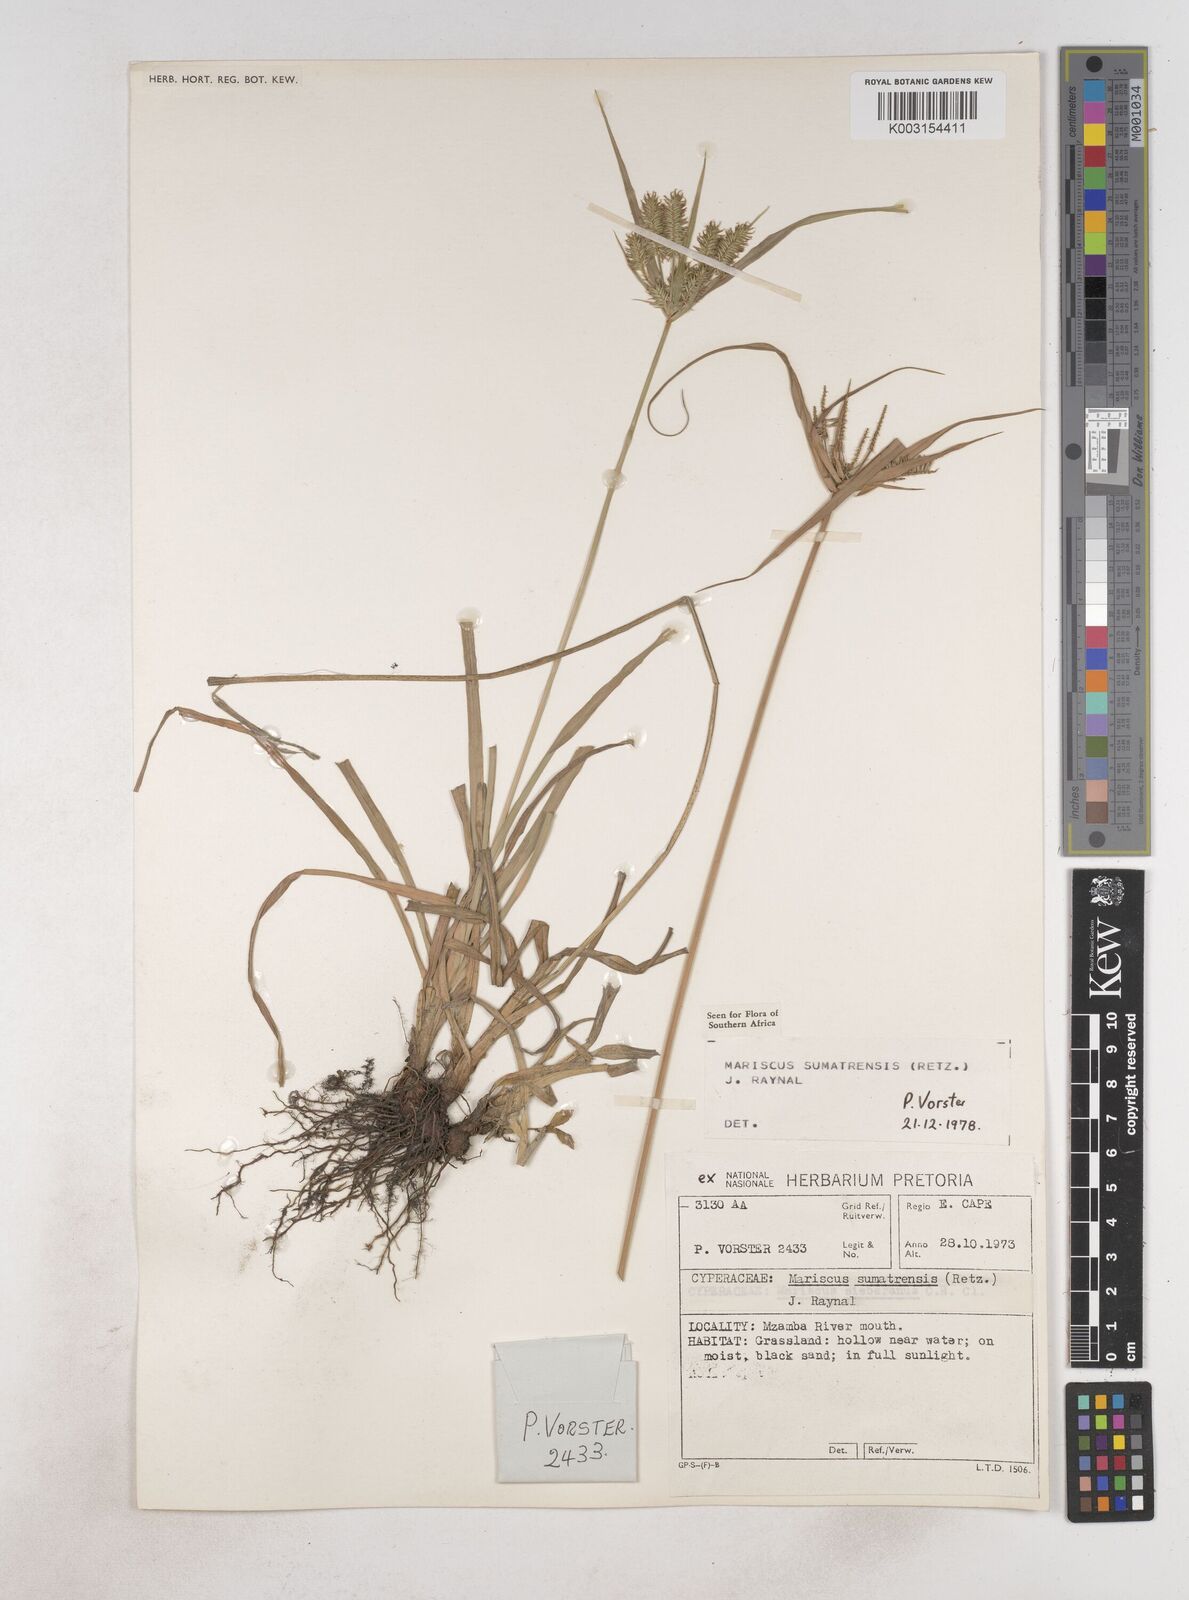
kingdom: Plantae
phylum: Tracheophyta
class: Liliopsida
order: Poales
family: Cyperaceae
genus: Cyperus
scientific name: Cyperus cyperoides
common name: Pacific island flat sedge
